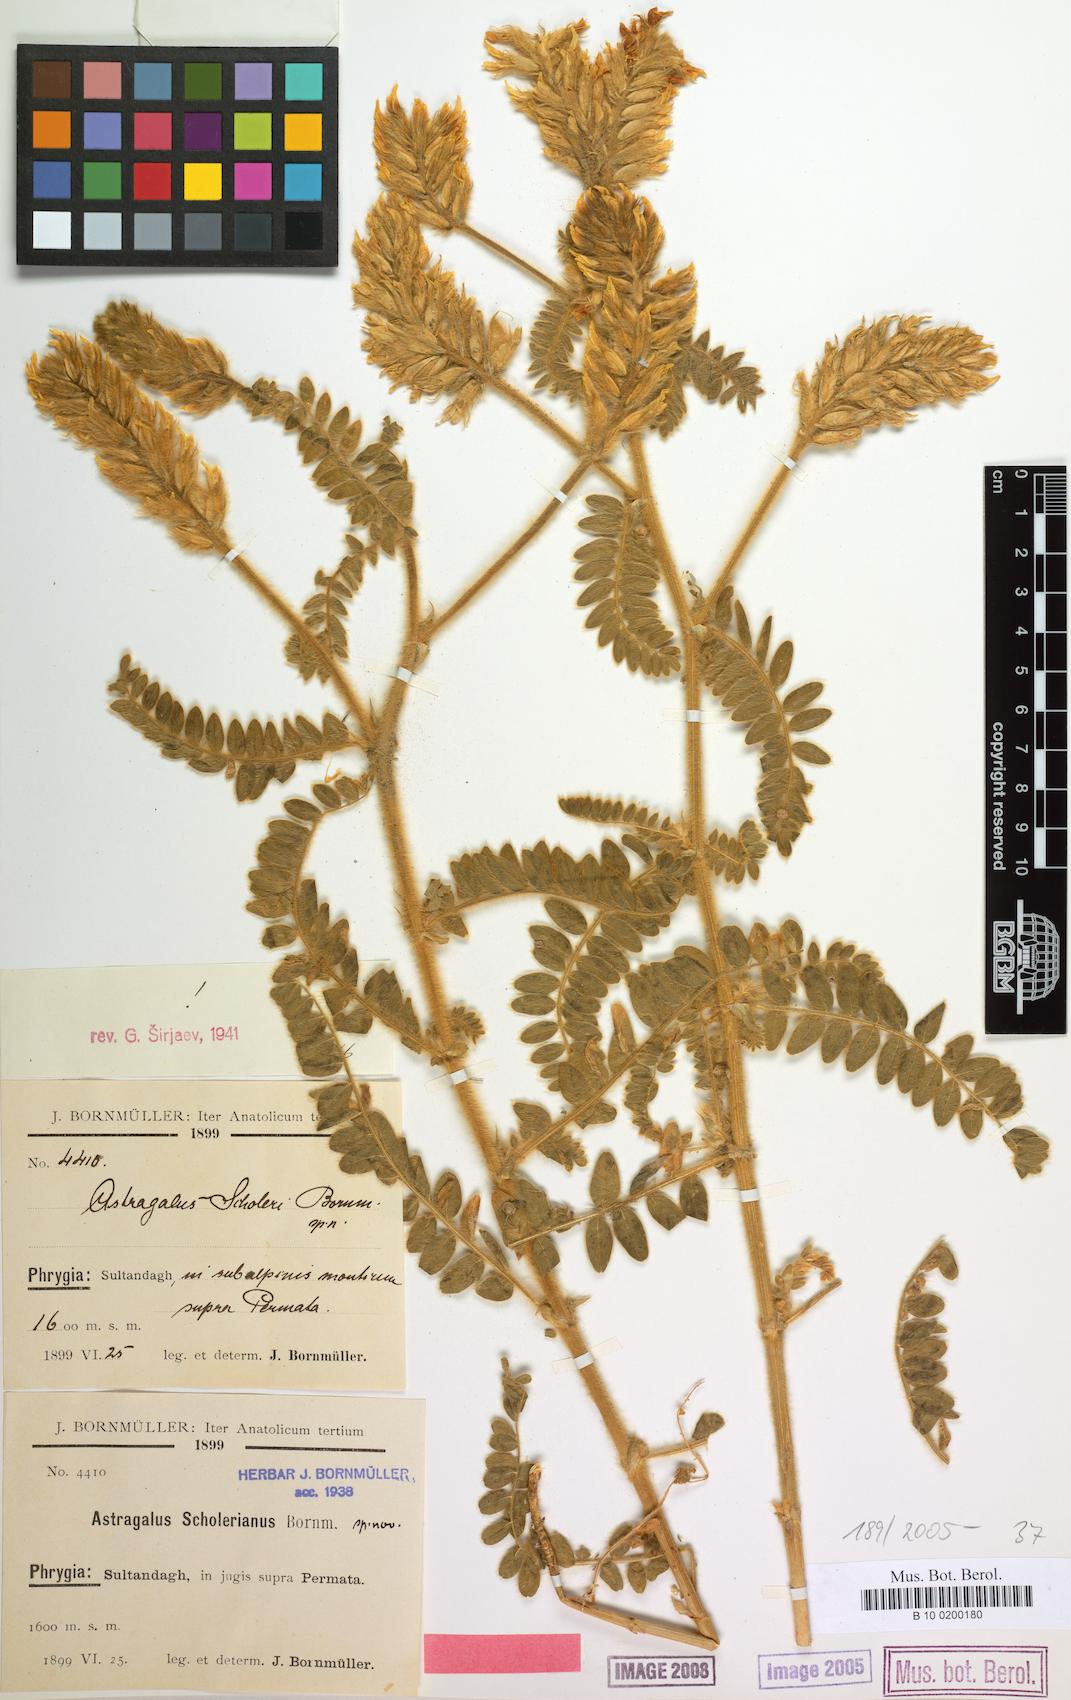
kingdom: Plantae
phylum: Tracheophyta
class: Magnoliopsida
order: Fabales
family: Fabaceae
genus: Astragalus
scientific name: Astragalus scholerianus
